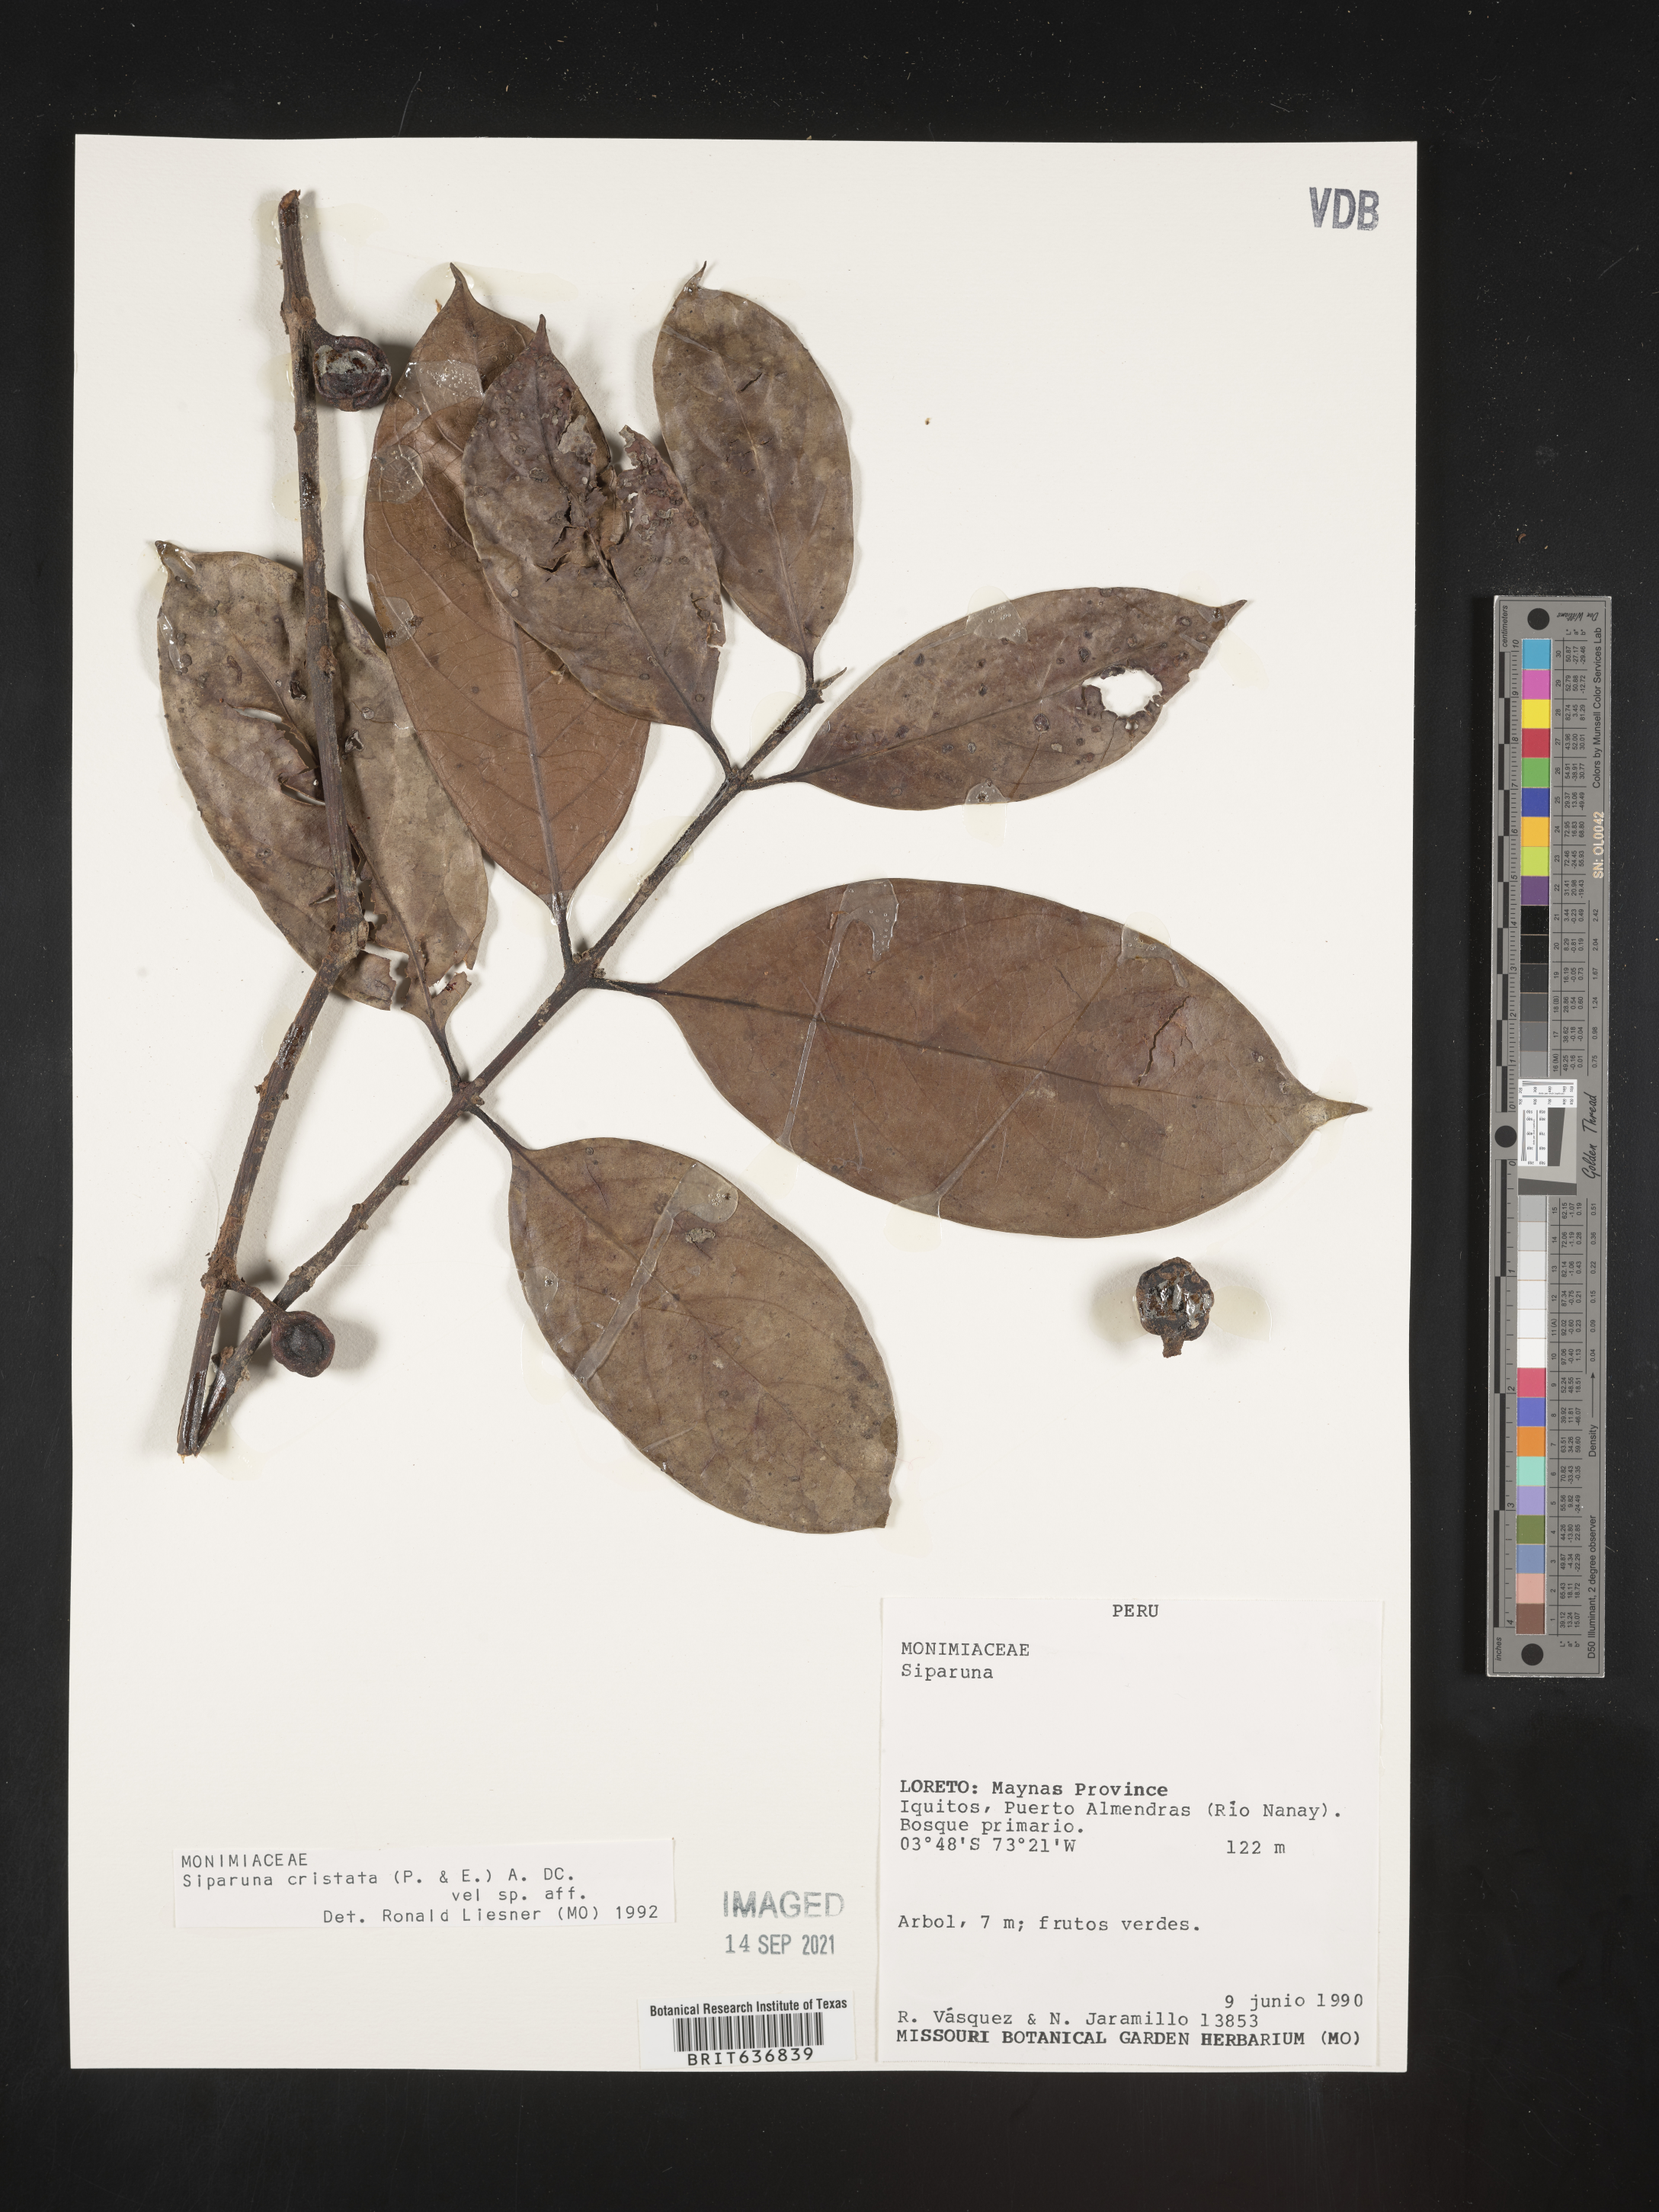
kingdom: Plantae
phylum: Tracheophyta
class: Magnoliopsida
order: Laurales
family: Siparunaceae
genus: Siparuna
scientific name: Siparuna
